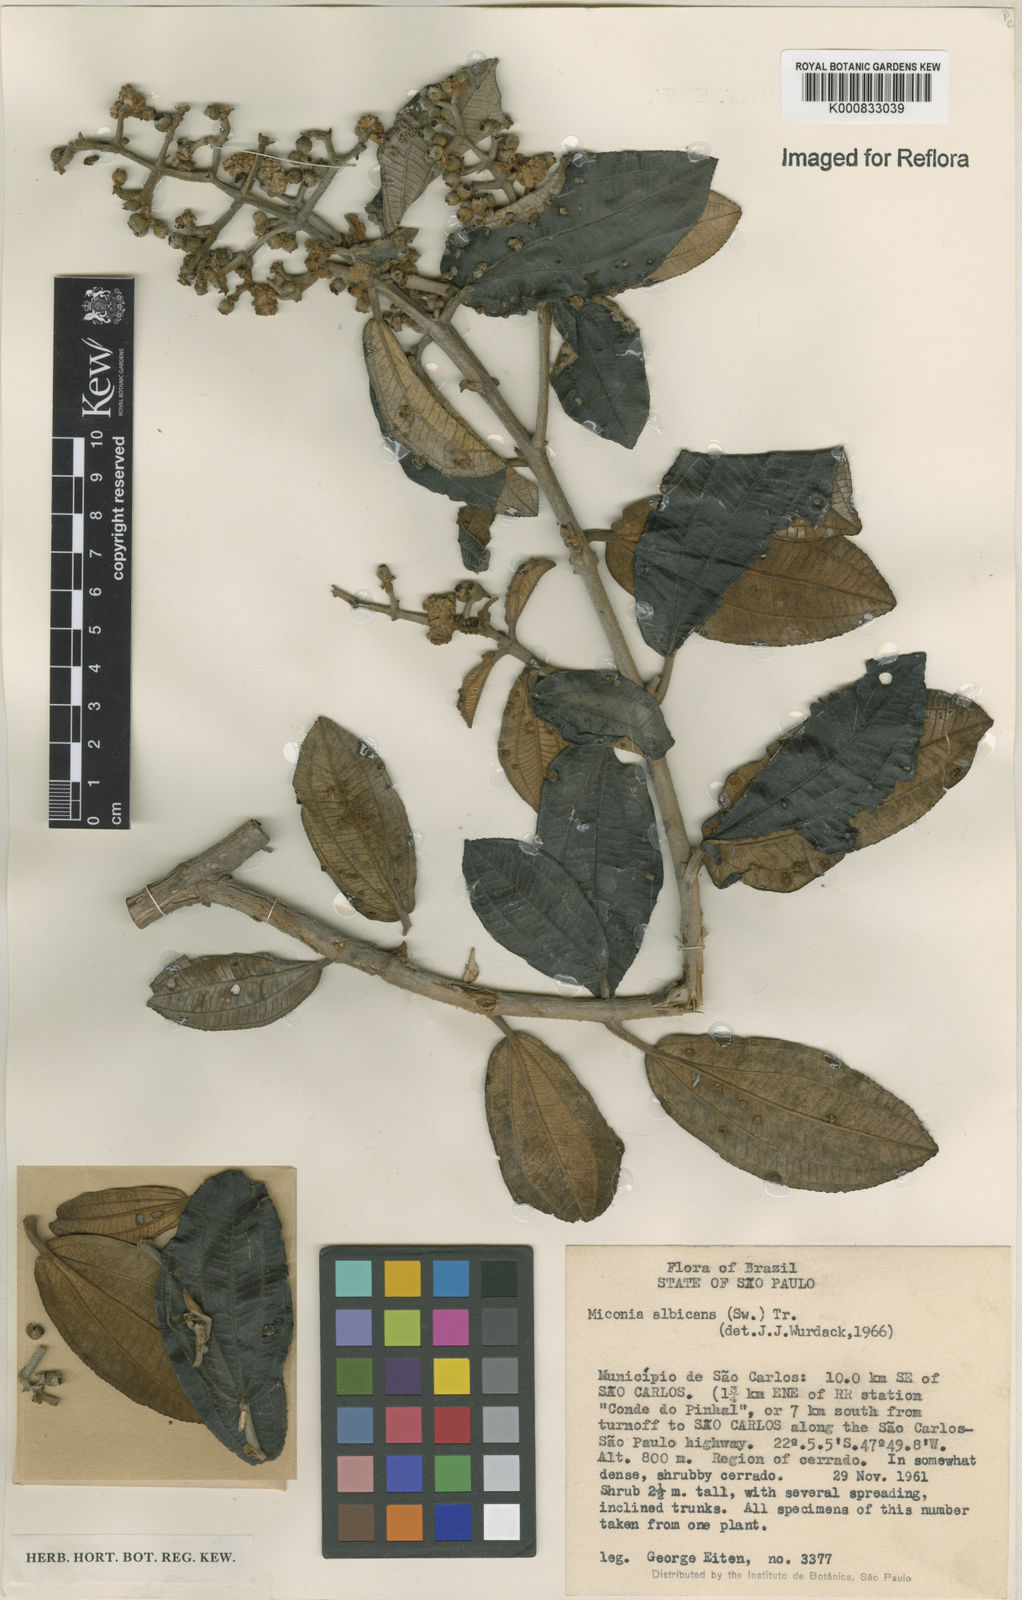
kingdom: Plantae
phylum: Tracheophyta
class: Magnoliopsida
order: Myrtales
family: Melastomataceae
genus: Miconia
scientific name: Miconia albicans
